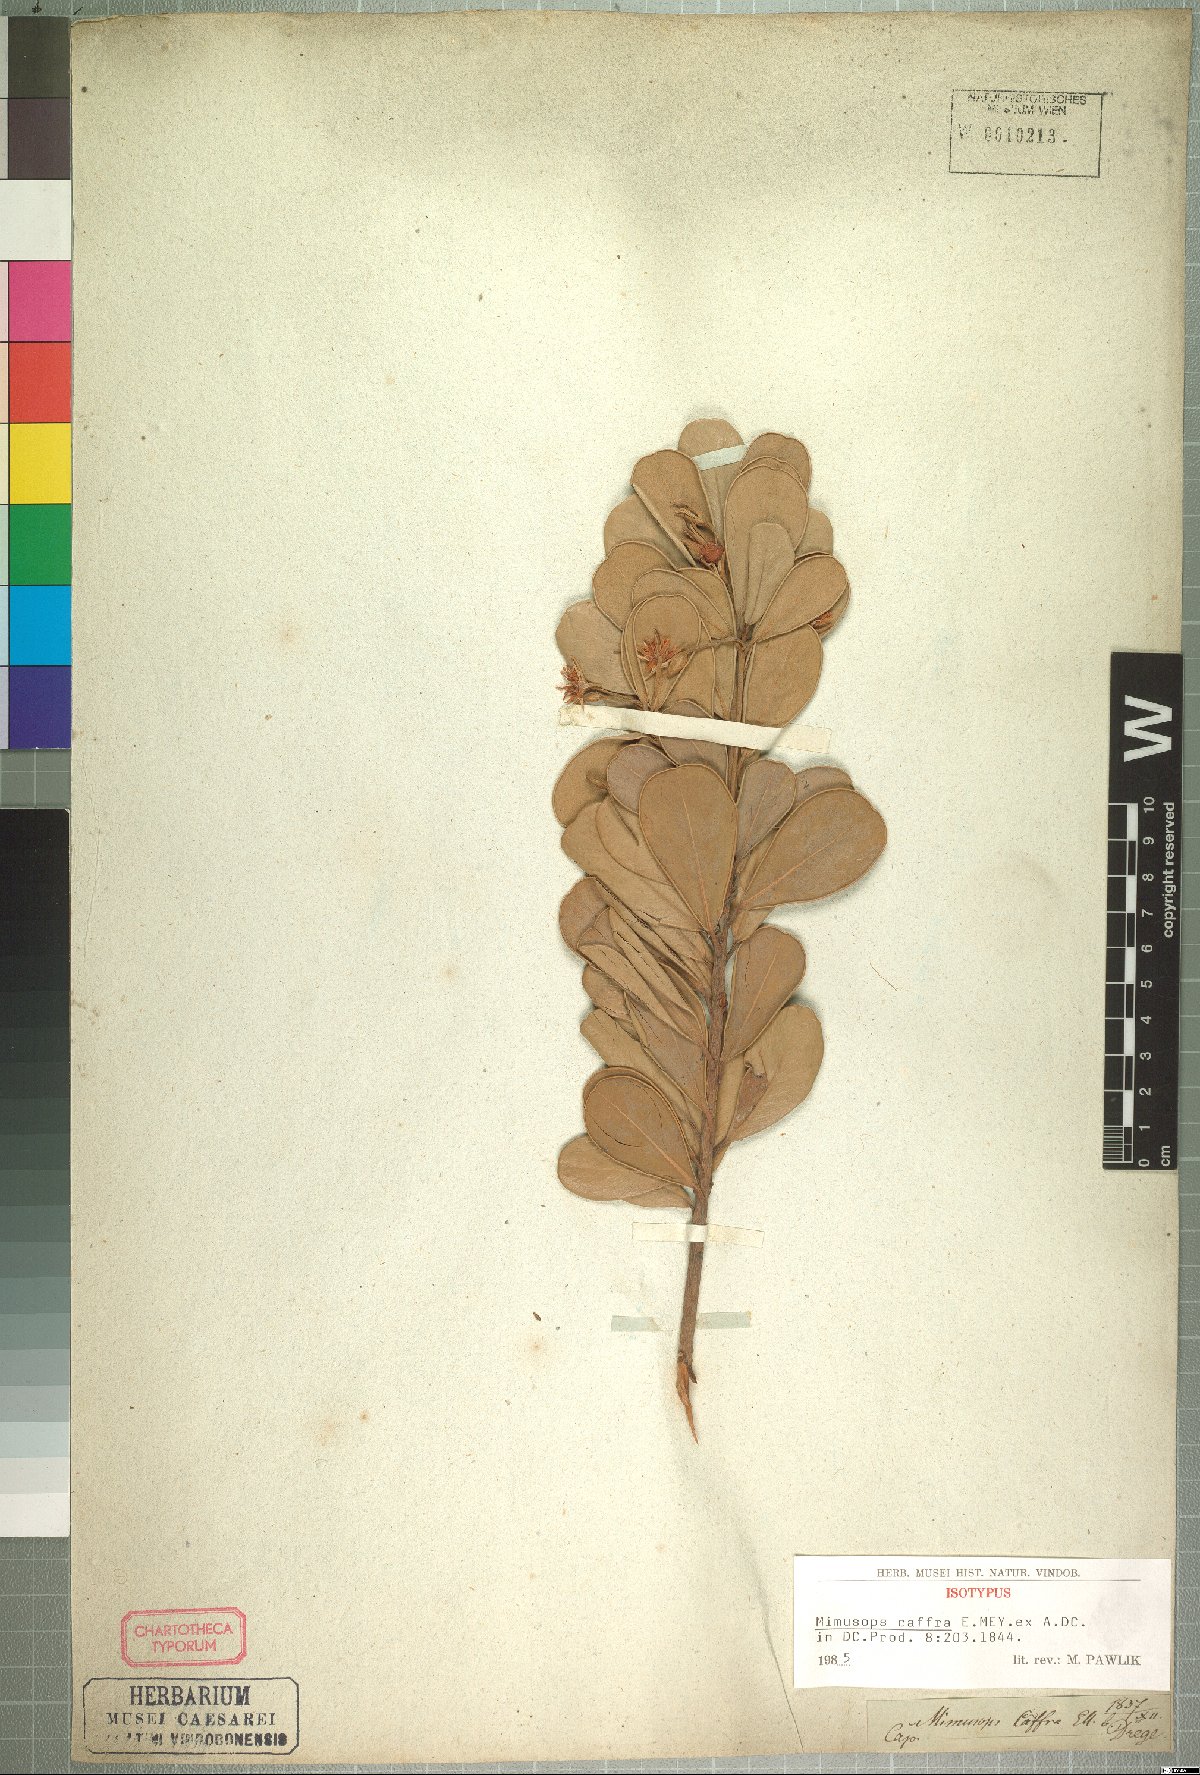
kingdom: Plantae
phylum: Tracheophyta
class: Magnoliopsida
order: Ericales
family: Sapotaceae
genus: Mimusops
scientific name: Mimusops caffra
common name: Coastal red milkwood
